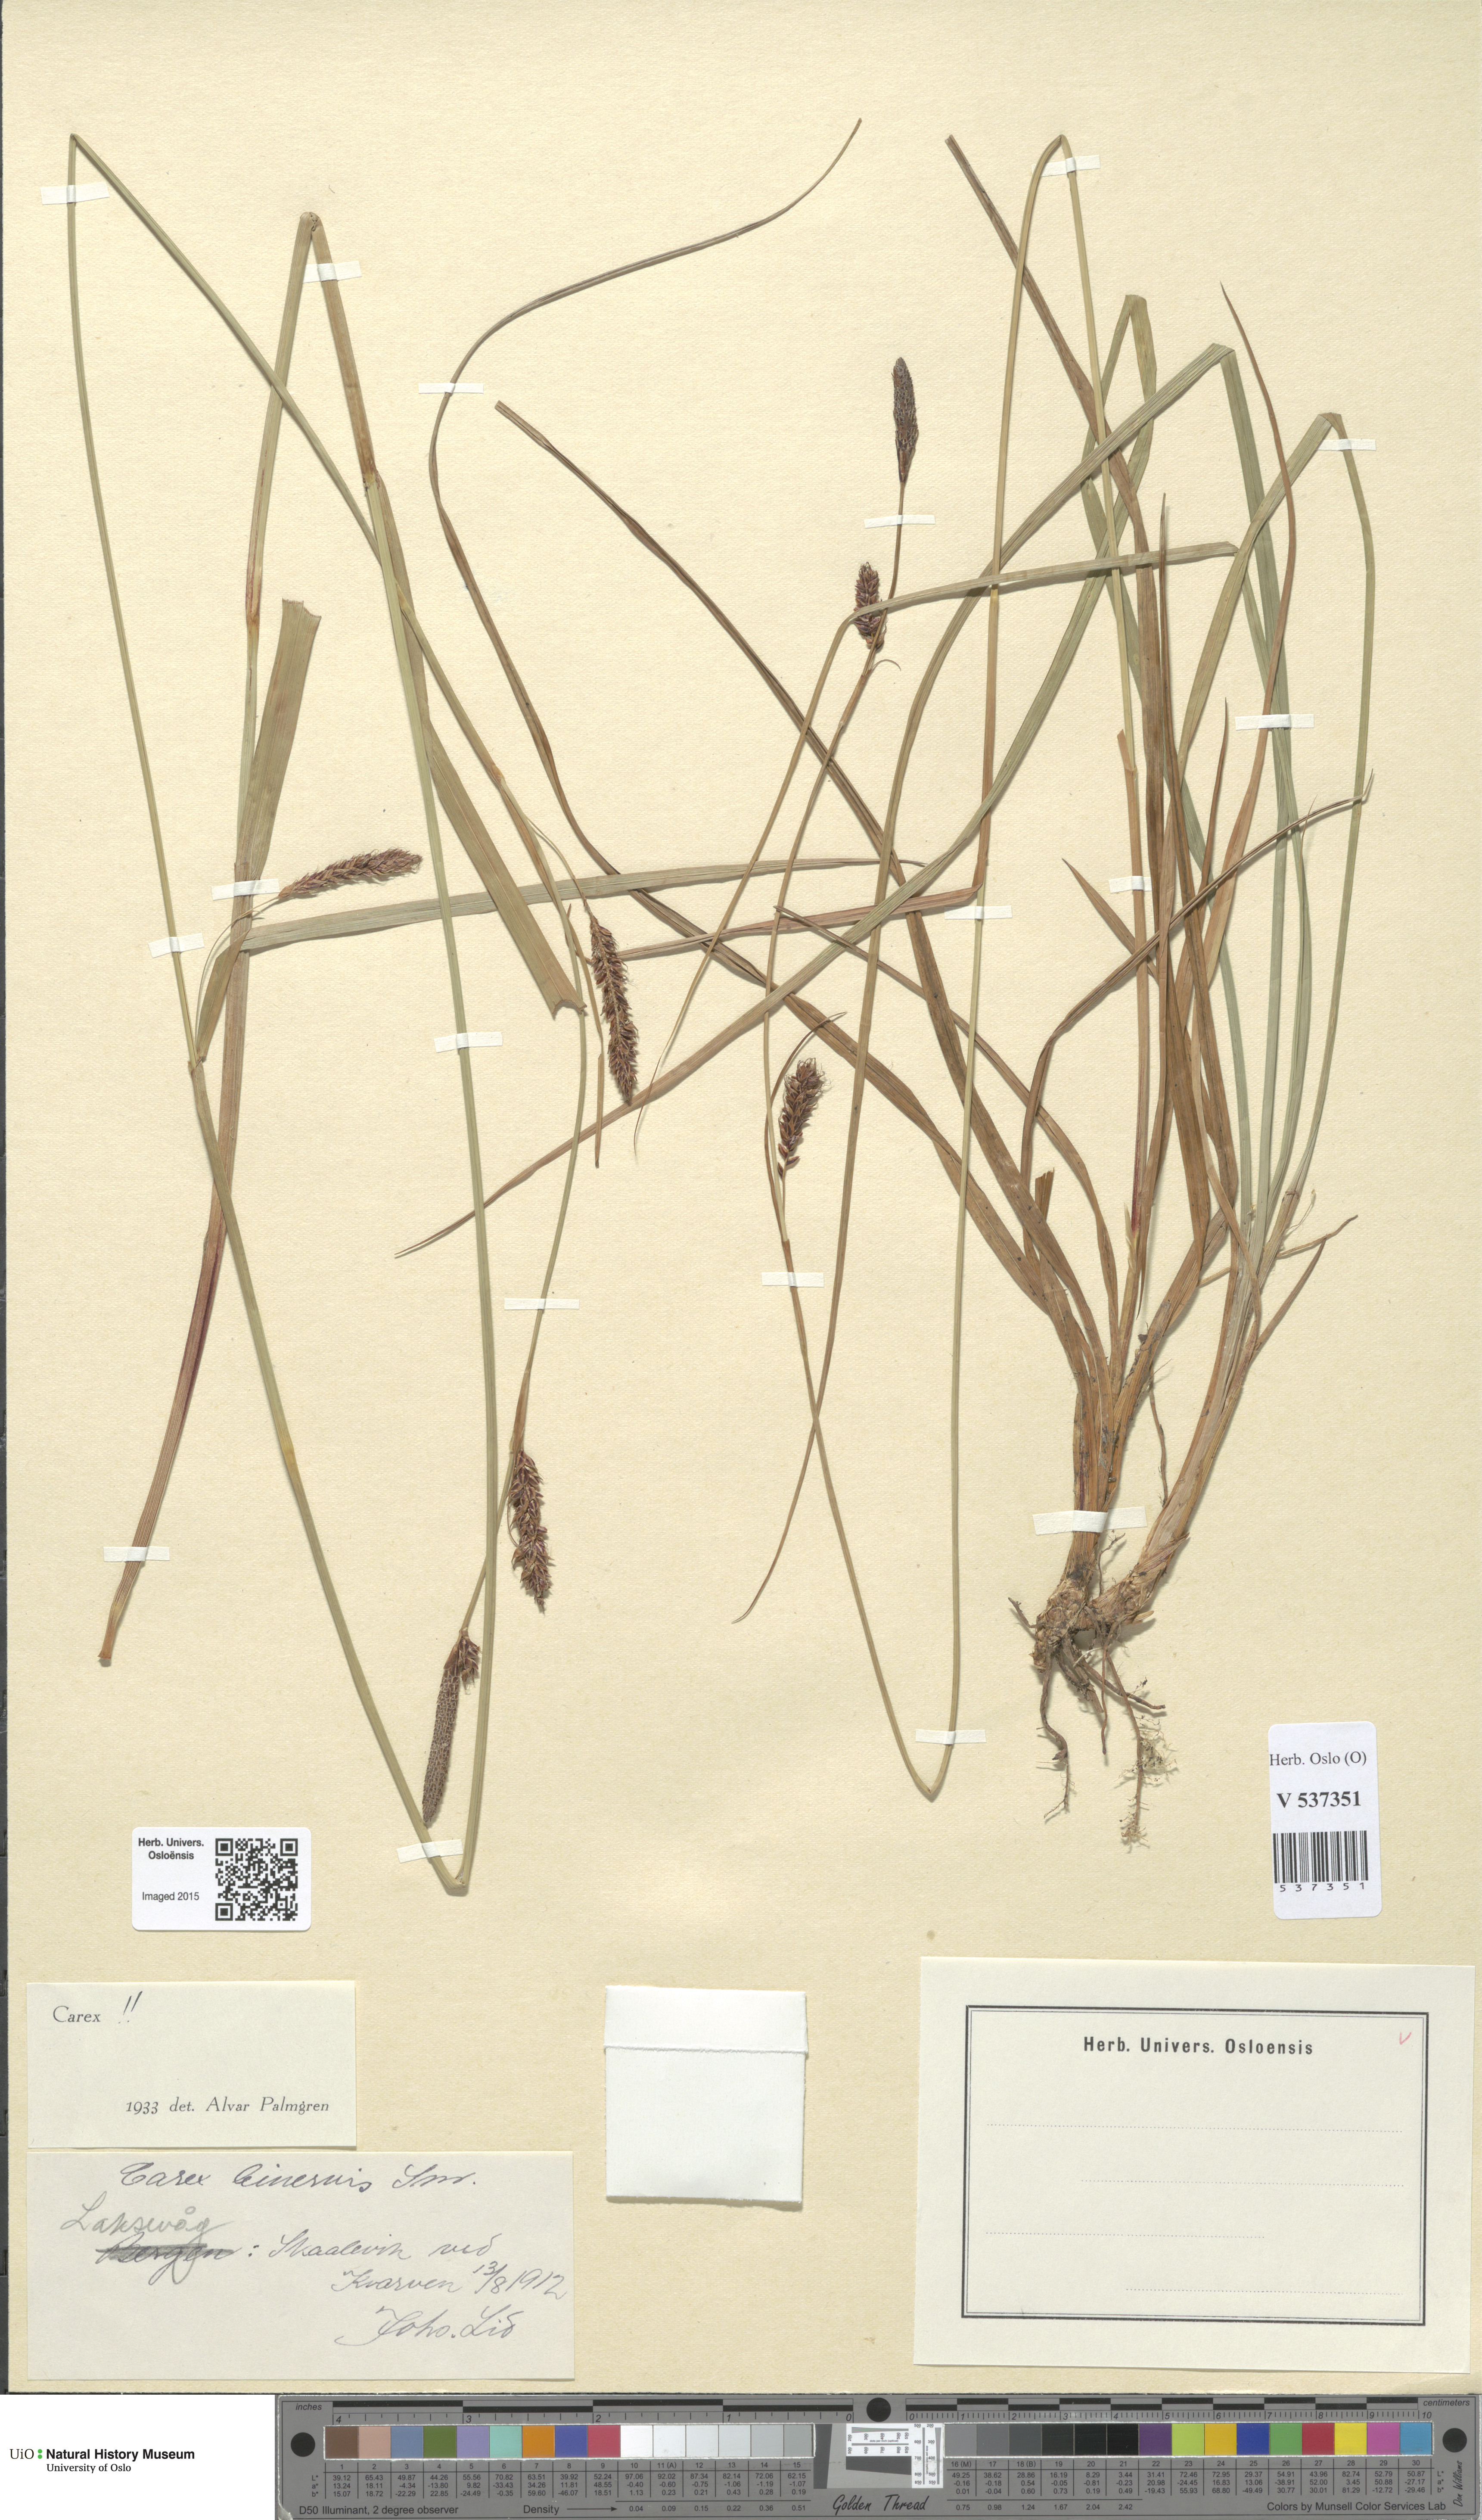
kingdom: Plantae
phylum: Tracheophyta
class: Liliopsida
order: Poales
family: Cyperaceae
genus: Carex
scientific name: Carex binervis
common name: Green-ribbed sedge
